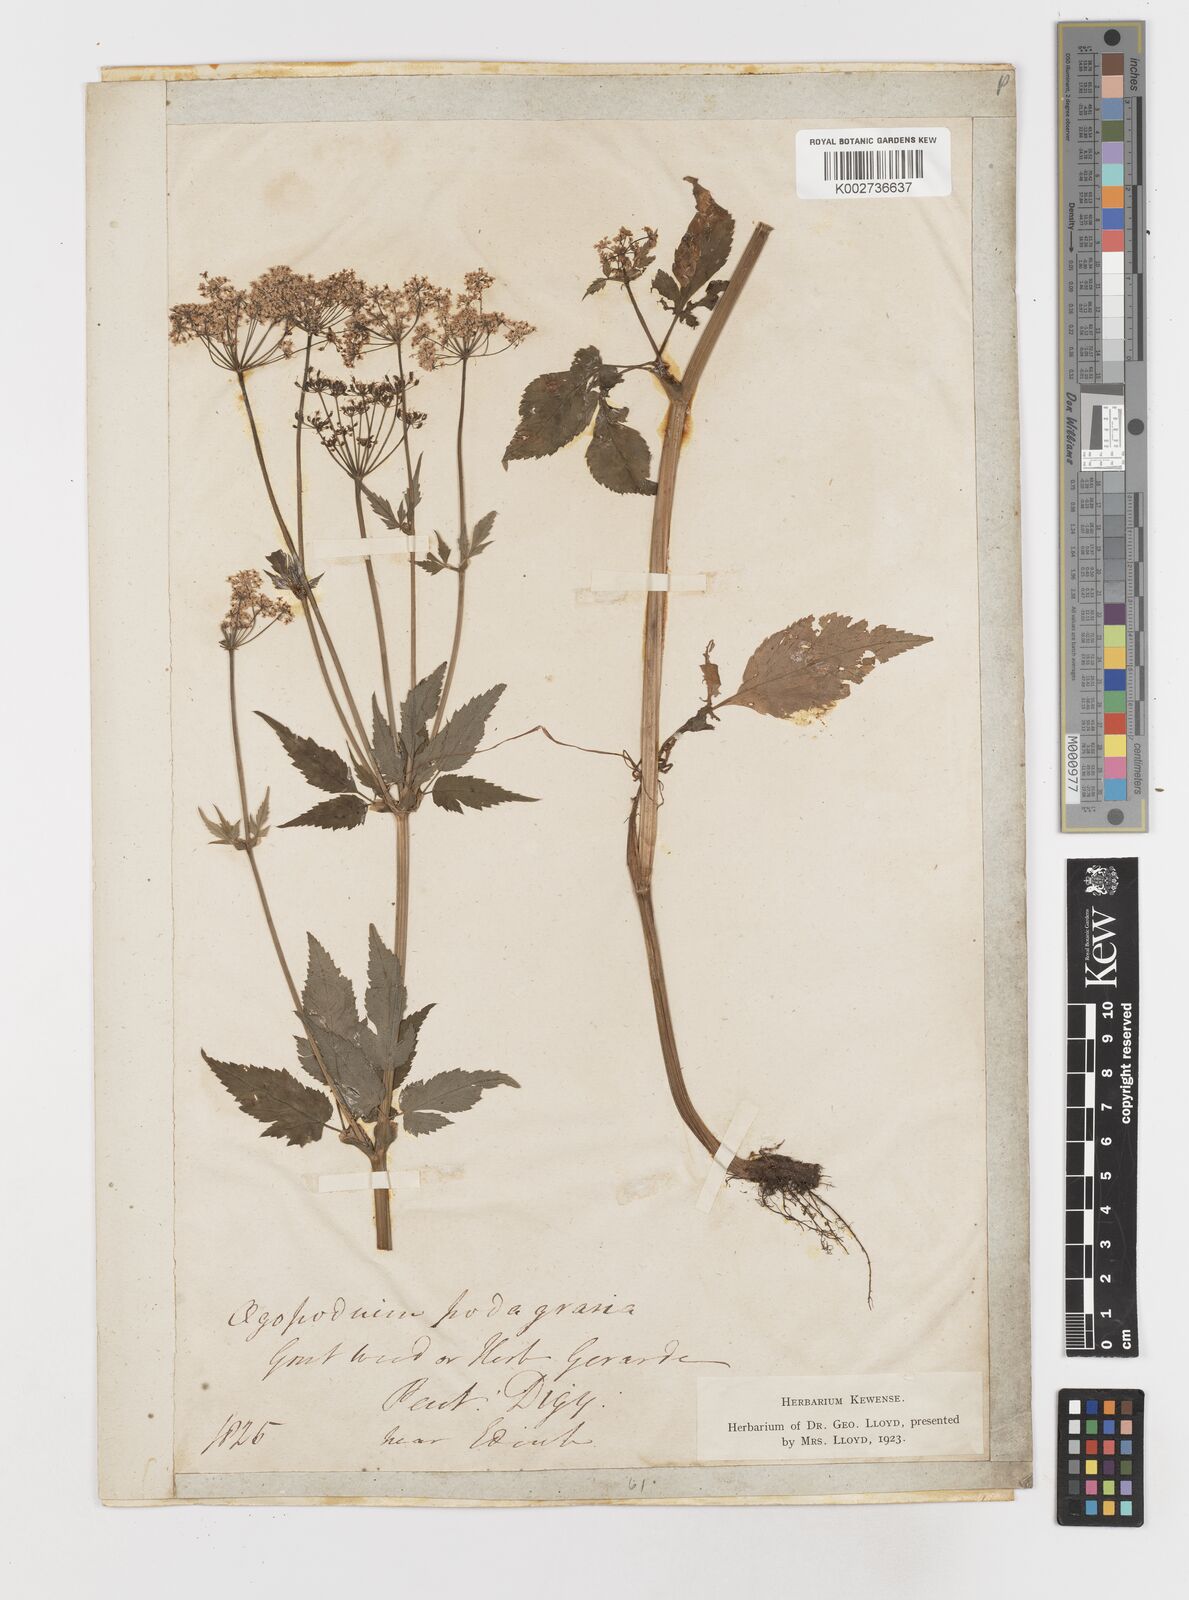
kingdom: Plantae
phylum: Tracheophyta
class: Magnoliopsida
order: Apiales
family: Apiaceae
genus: Aegopodium
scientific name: Aegopodium podagraria
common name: Ground-elder
